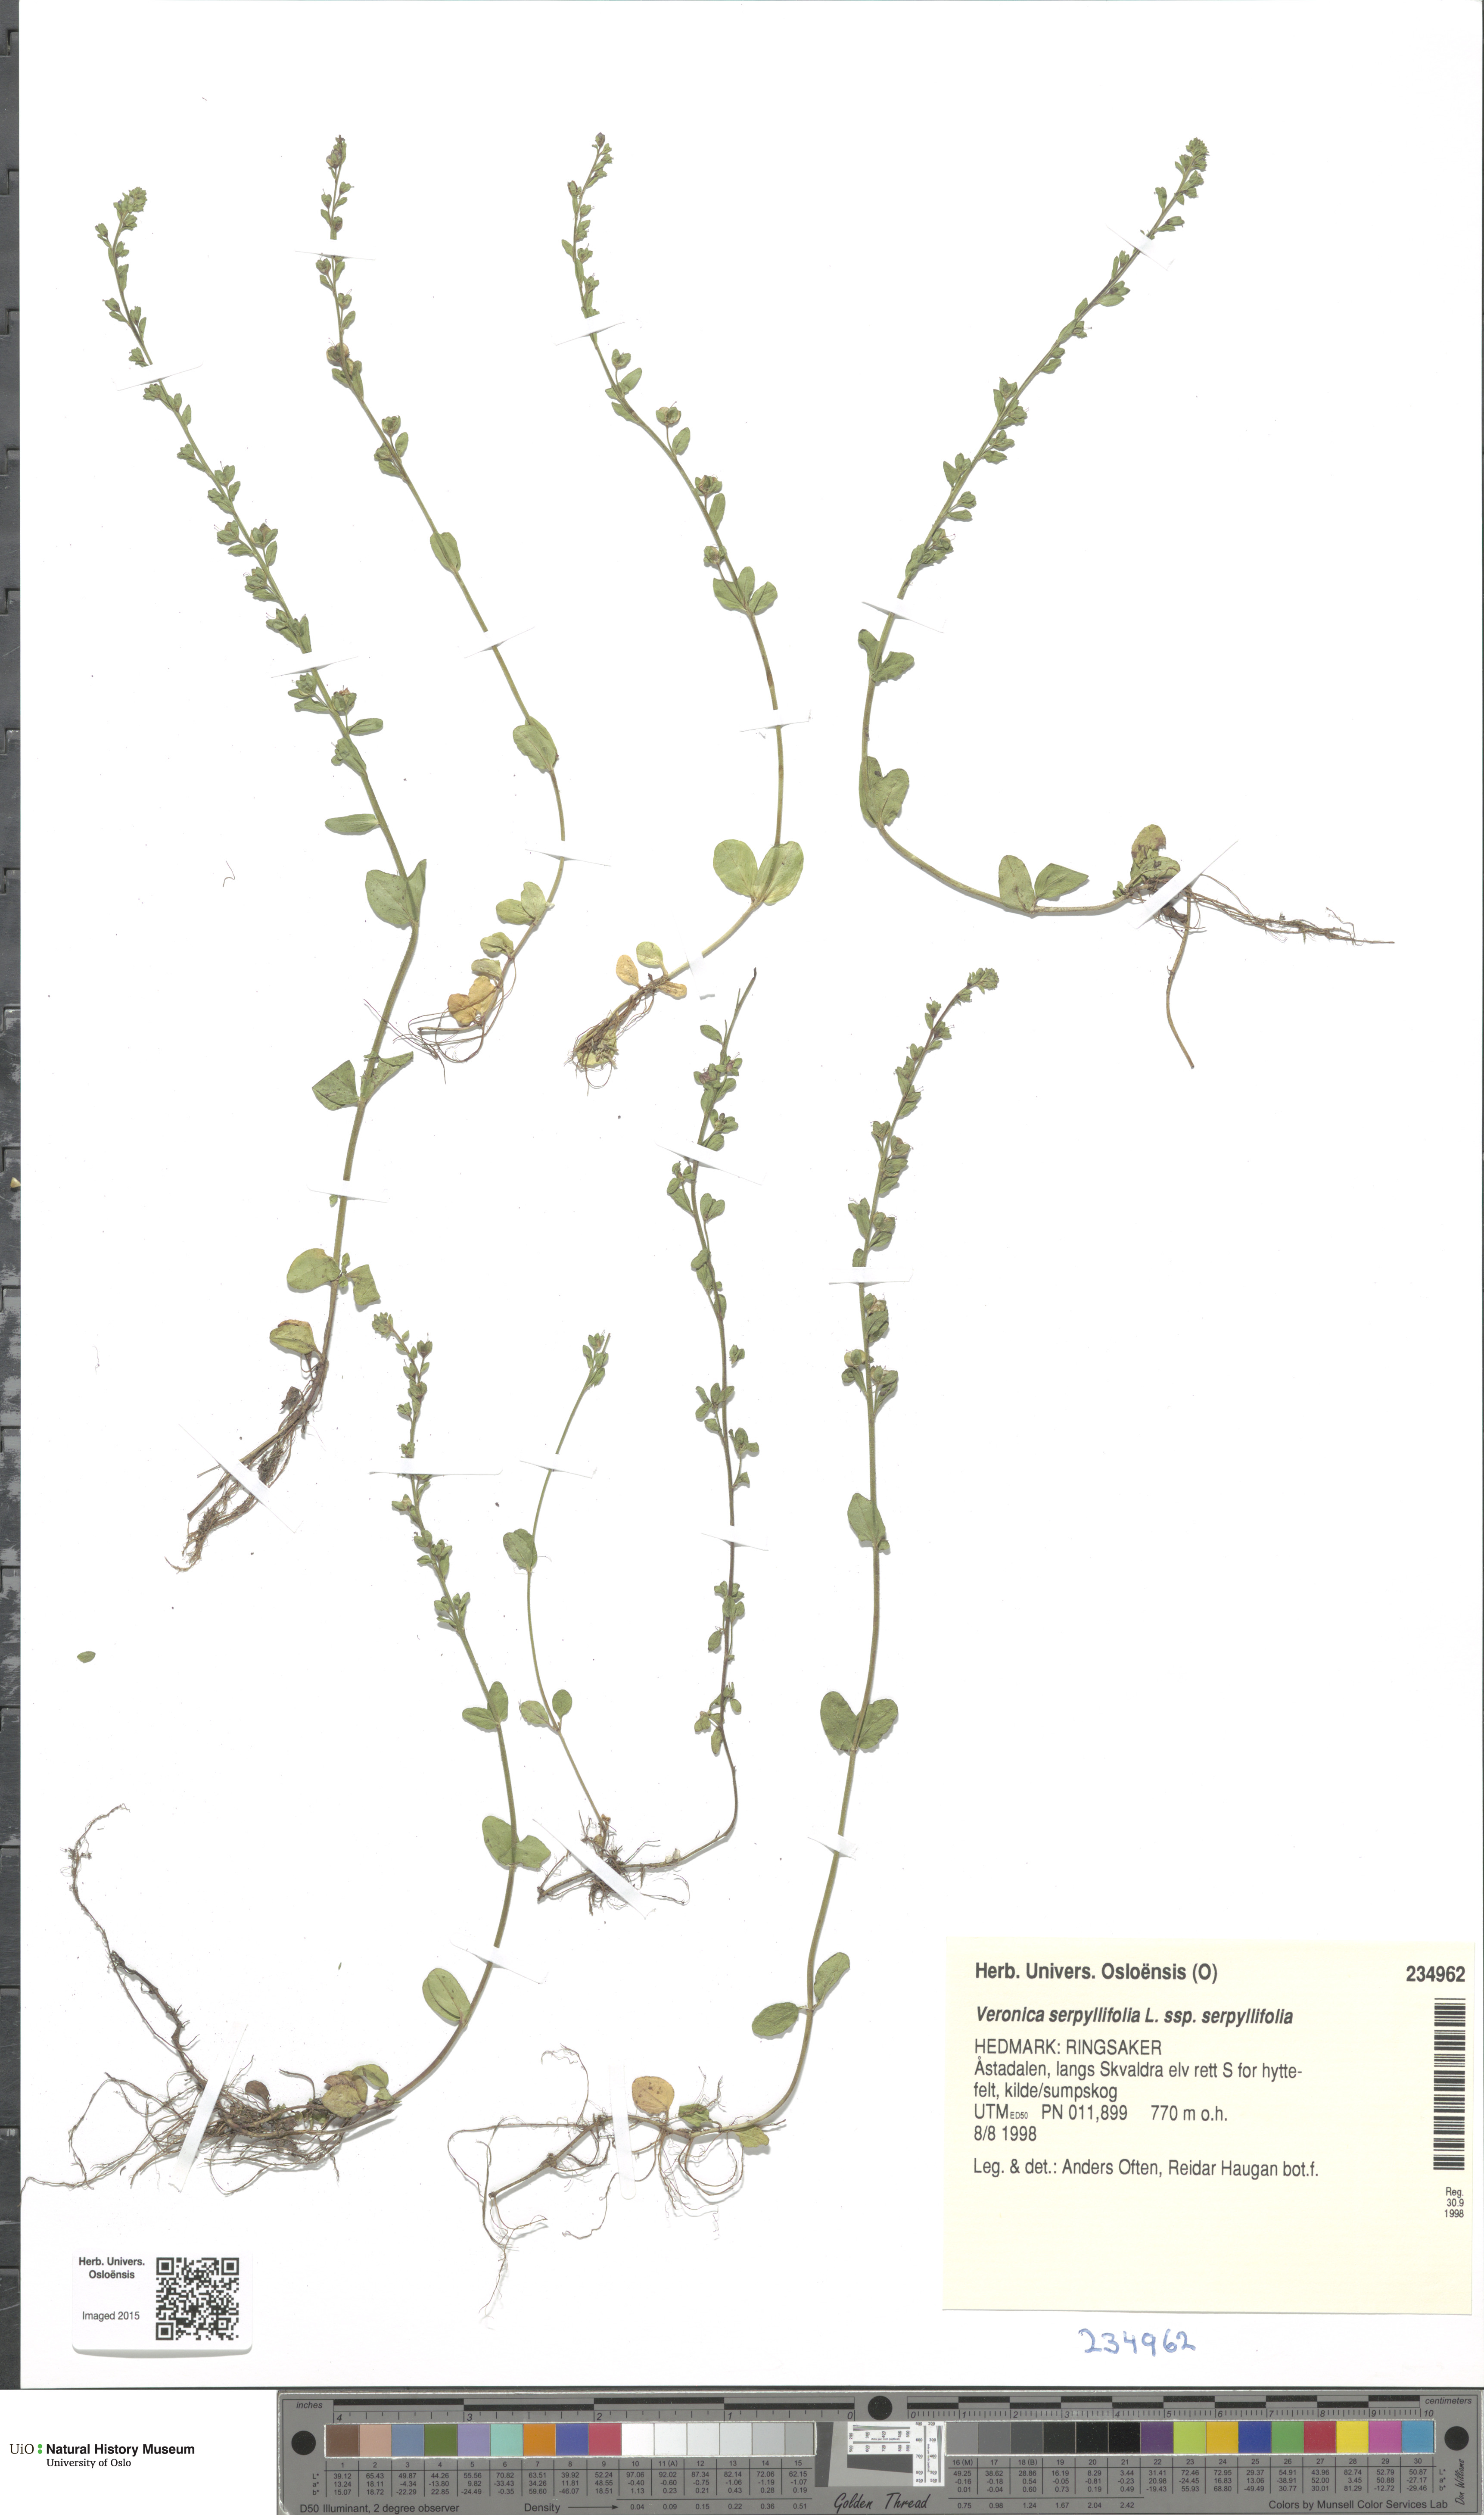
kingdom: Plantae
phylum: Tracheophyta
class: Magnoliopsida
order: Lamiales
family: Plantaginaceae
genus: Veronica
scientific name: Veronica serpyllifolia
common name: Thyme-leaved speedwell
